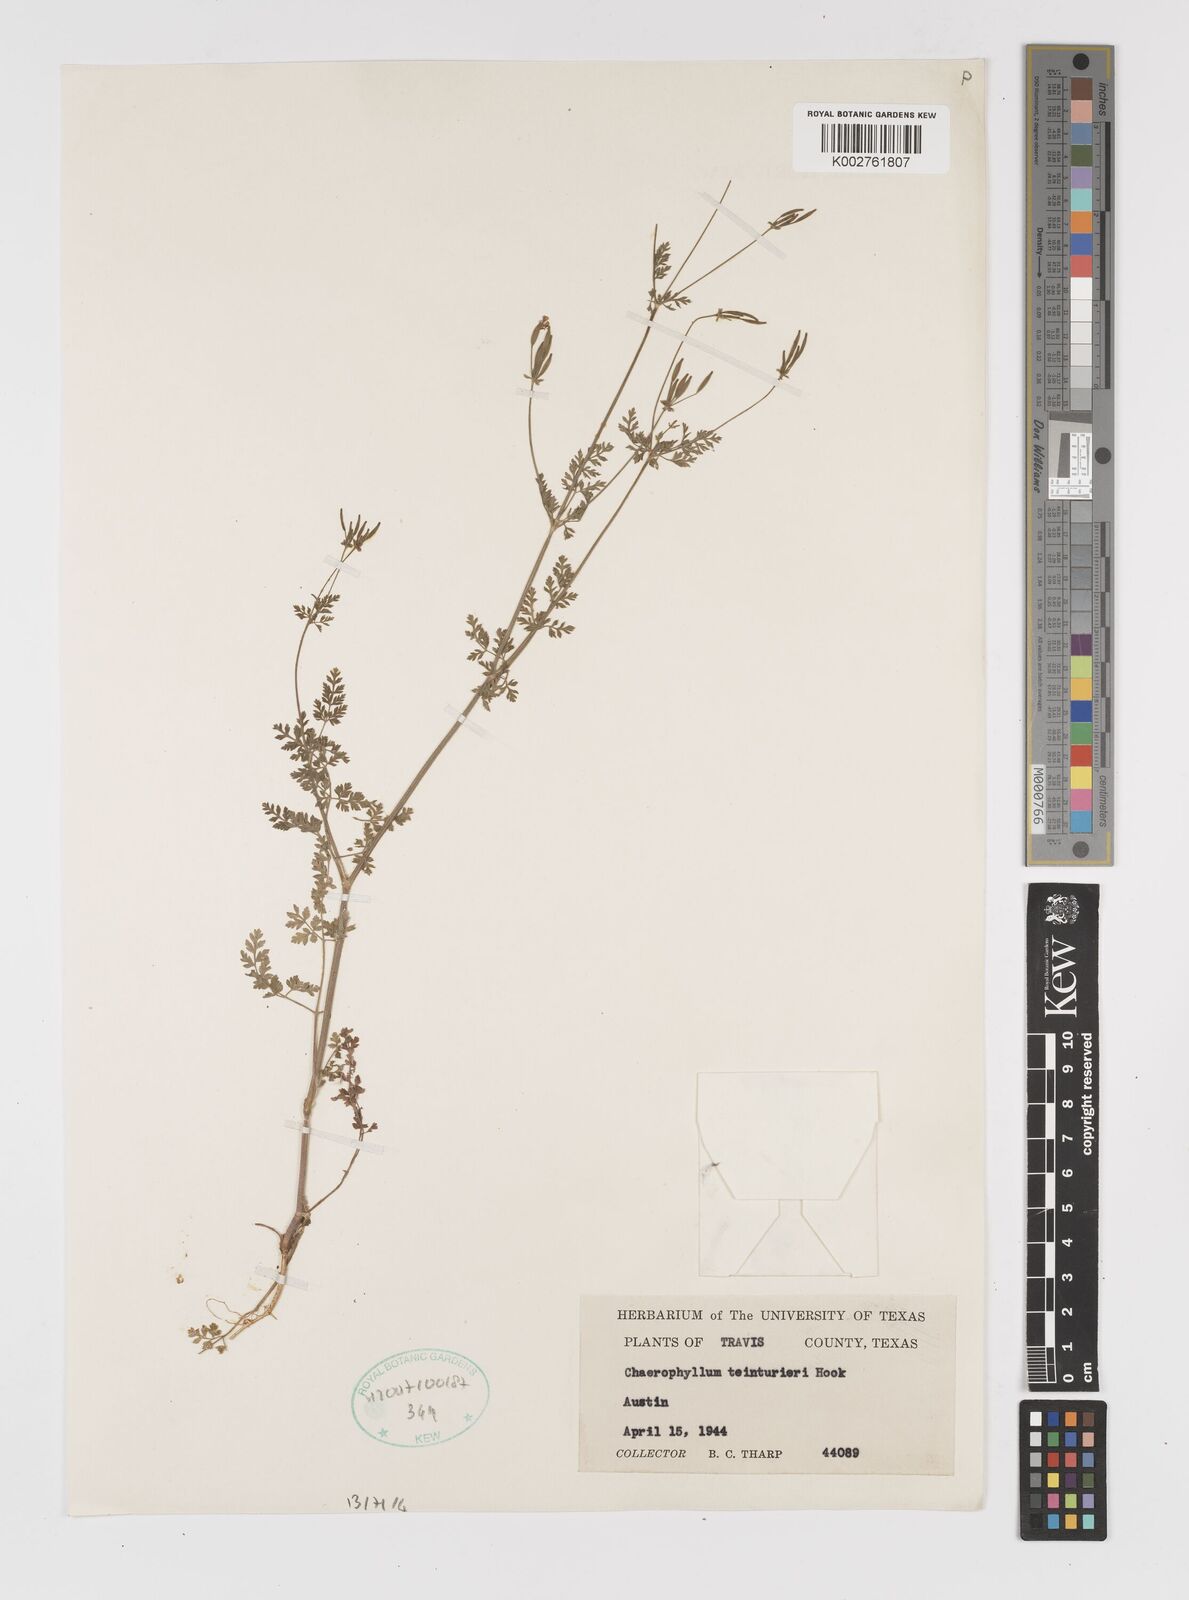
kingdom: Plantae
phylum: Tracheophyta
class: Magnoliopsida
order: Apiales
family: Apiaceae
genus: Chaerophyllum
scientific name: Chaerophyllum tainturieri
